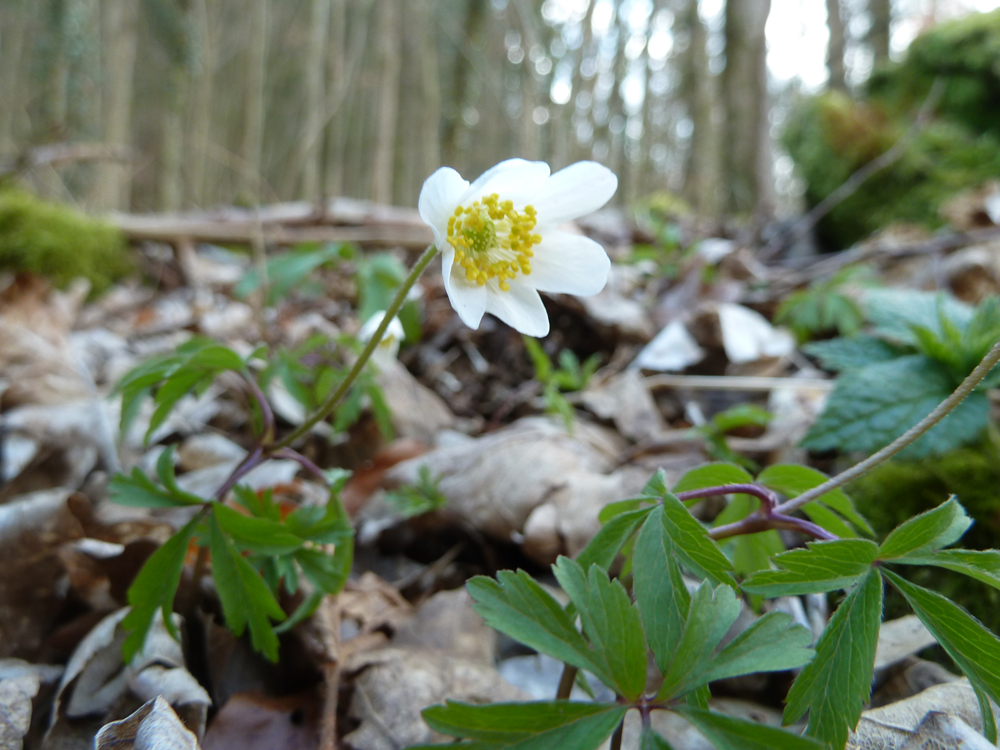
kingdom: Plantae
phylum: Tracheophyta
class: Magnoliopsida
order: Ranunculales
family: Ranunculaceae
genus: Anemone
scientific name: Anemone nemorosa
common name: Wood anemone
